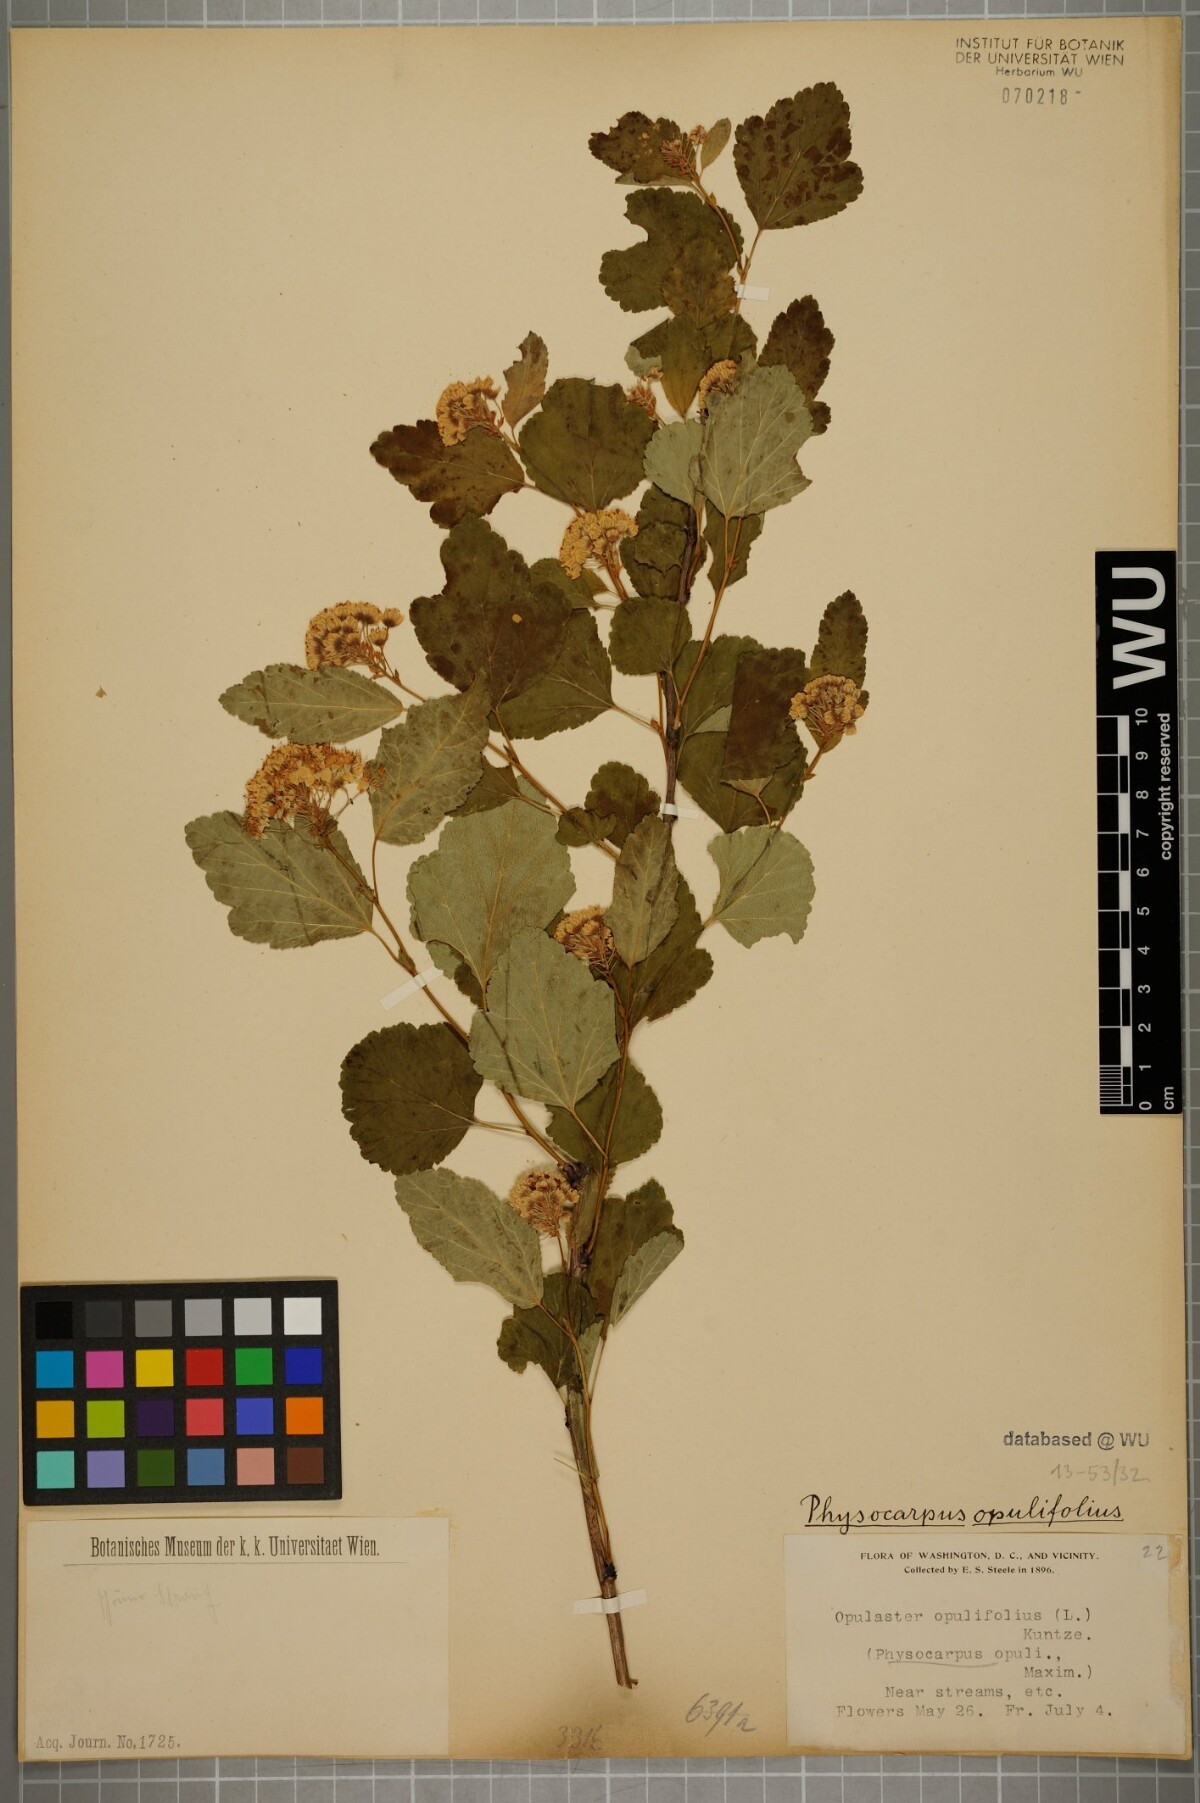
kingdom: Plantae
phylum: Tracheophyta
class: Magnoliopsida
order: Rosales
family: Rosaceae
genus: Physocarpus
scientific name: Physocarpus opulifolius
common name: Ninebark
